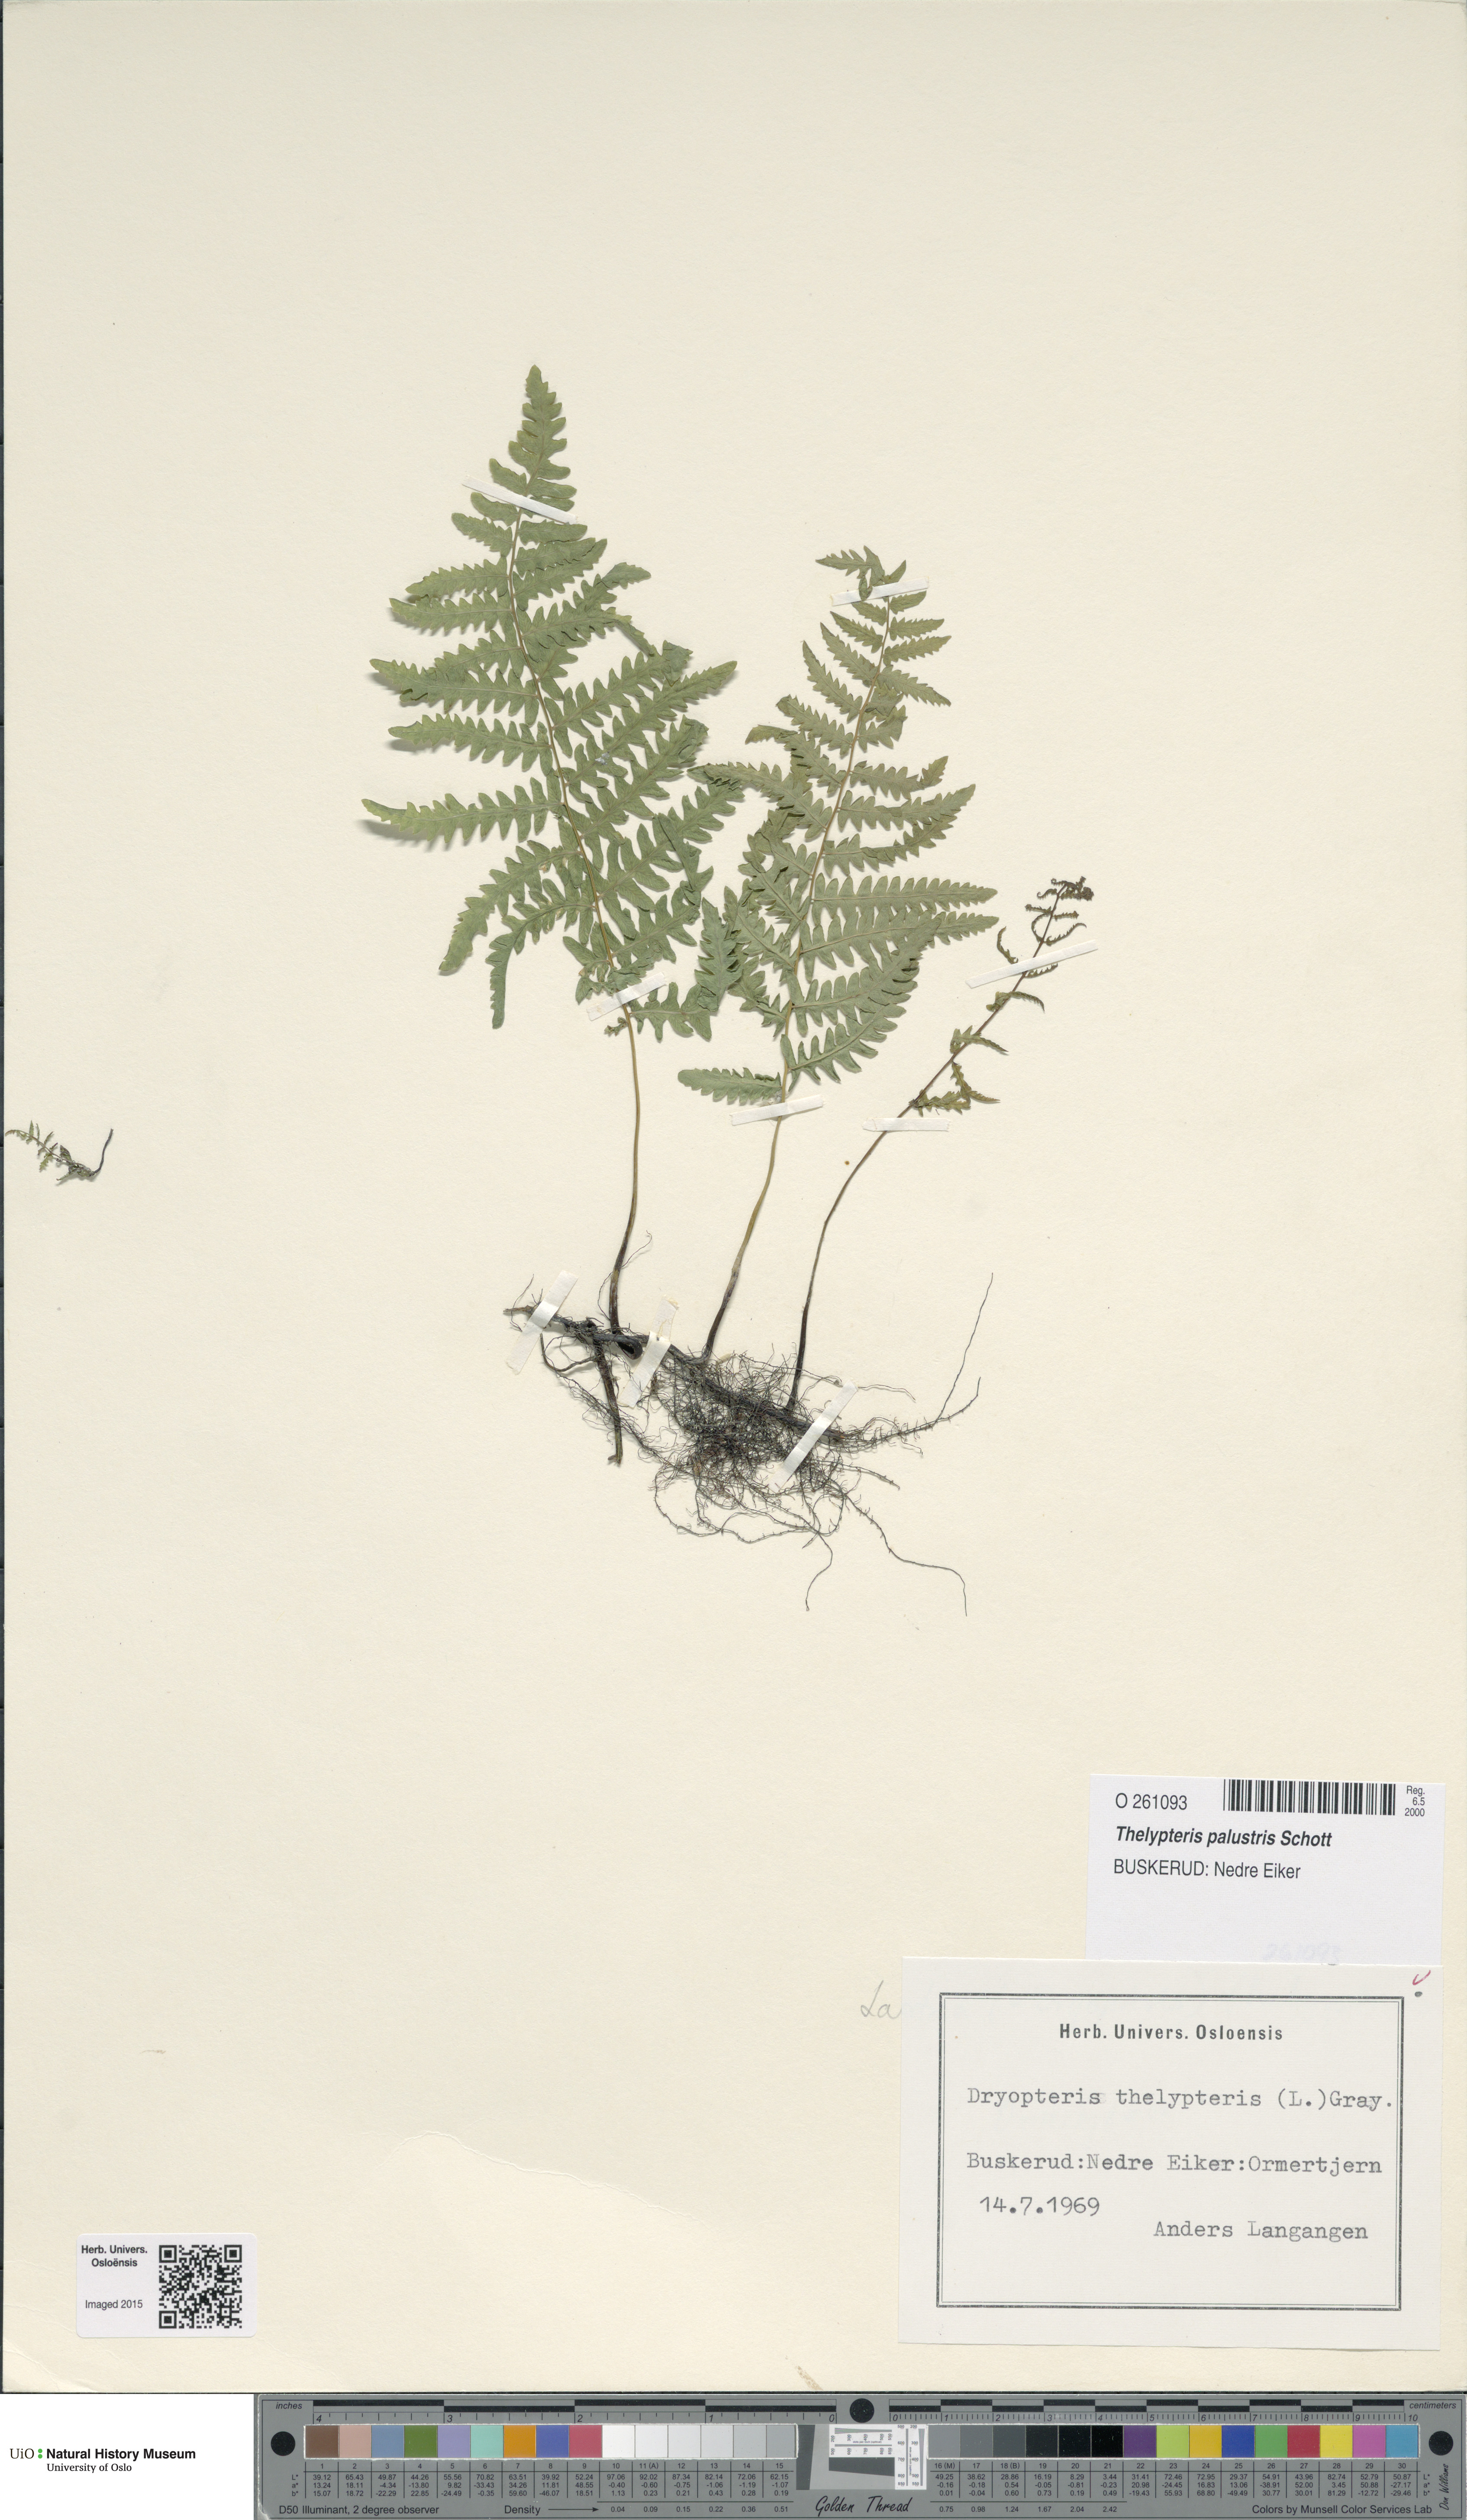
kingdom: Plantae
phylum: Tracheophyta
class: Polypodiopsida
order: Polypodiales
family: Thelypteridaceae
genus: Thelypteris
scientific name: Thelypteris palustris
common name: Marsh fern
